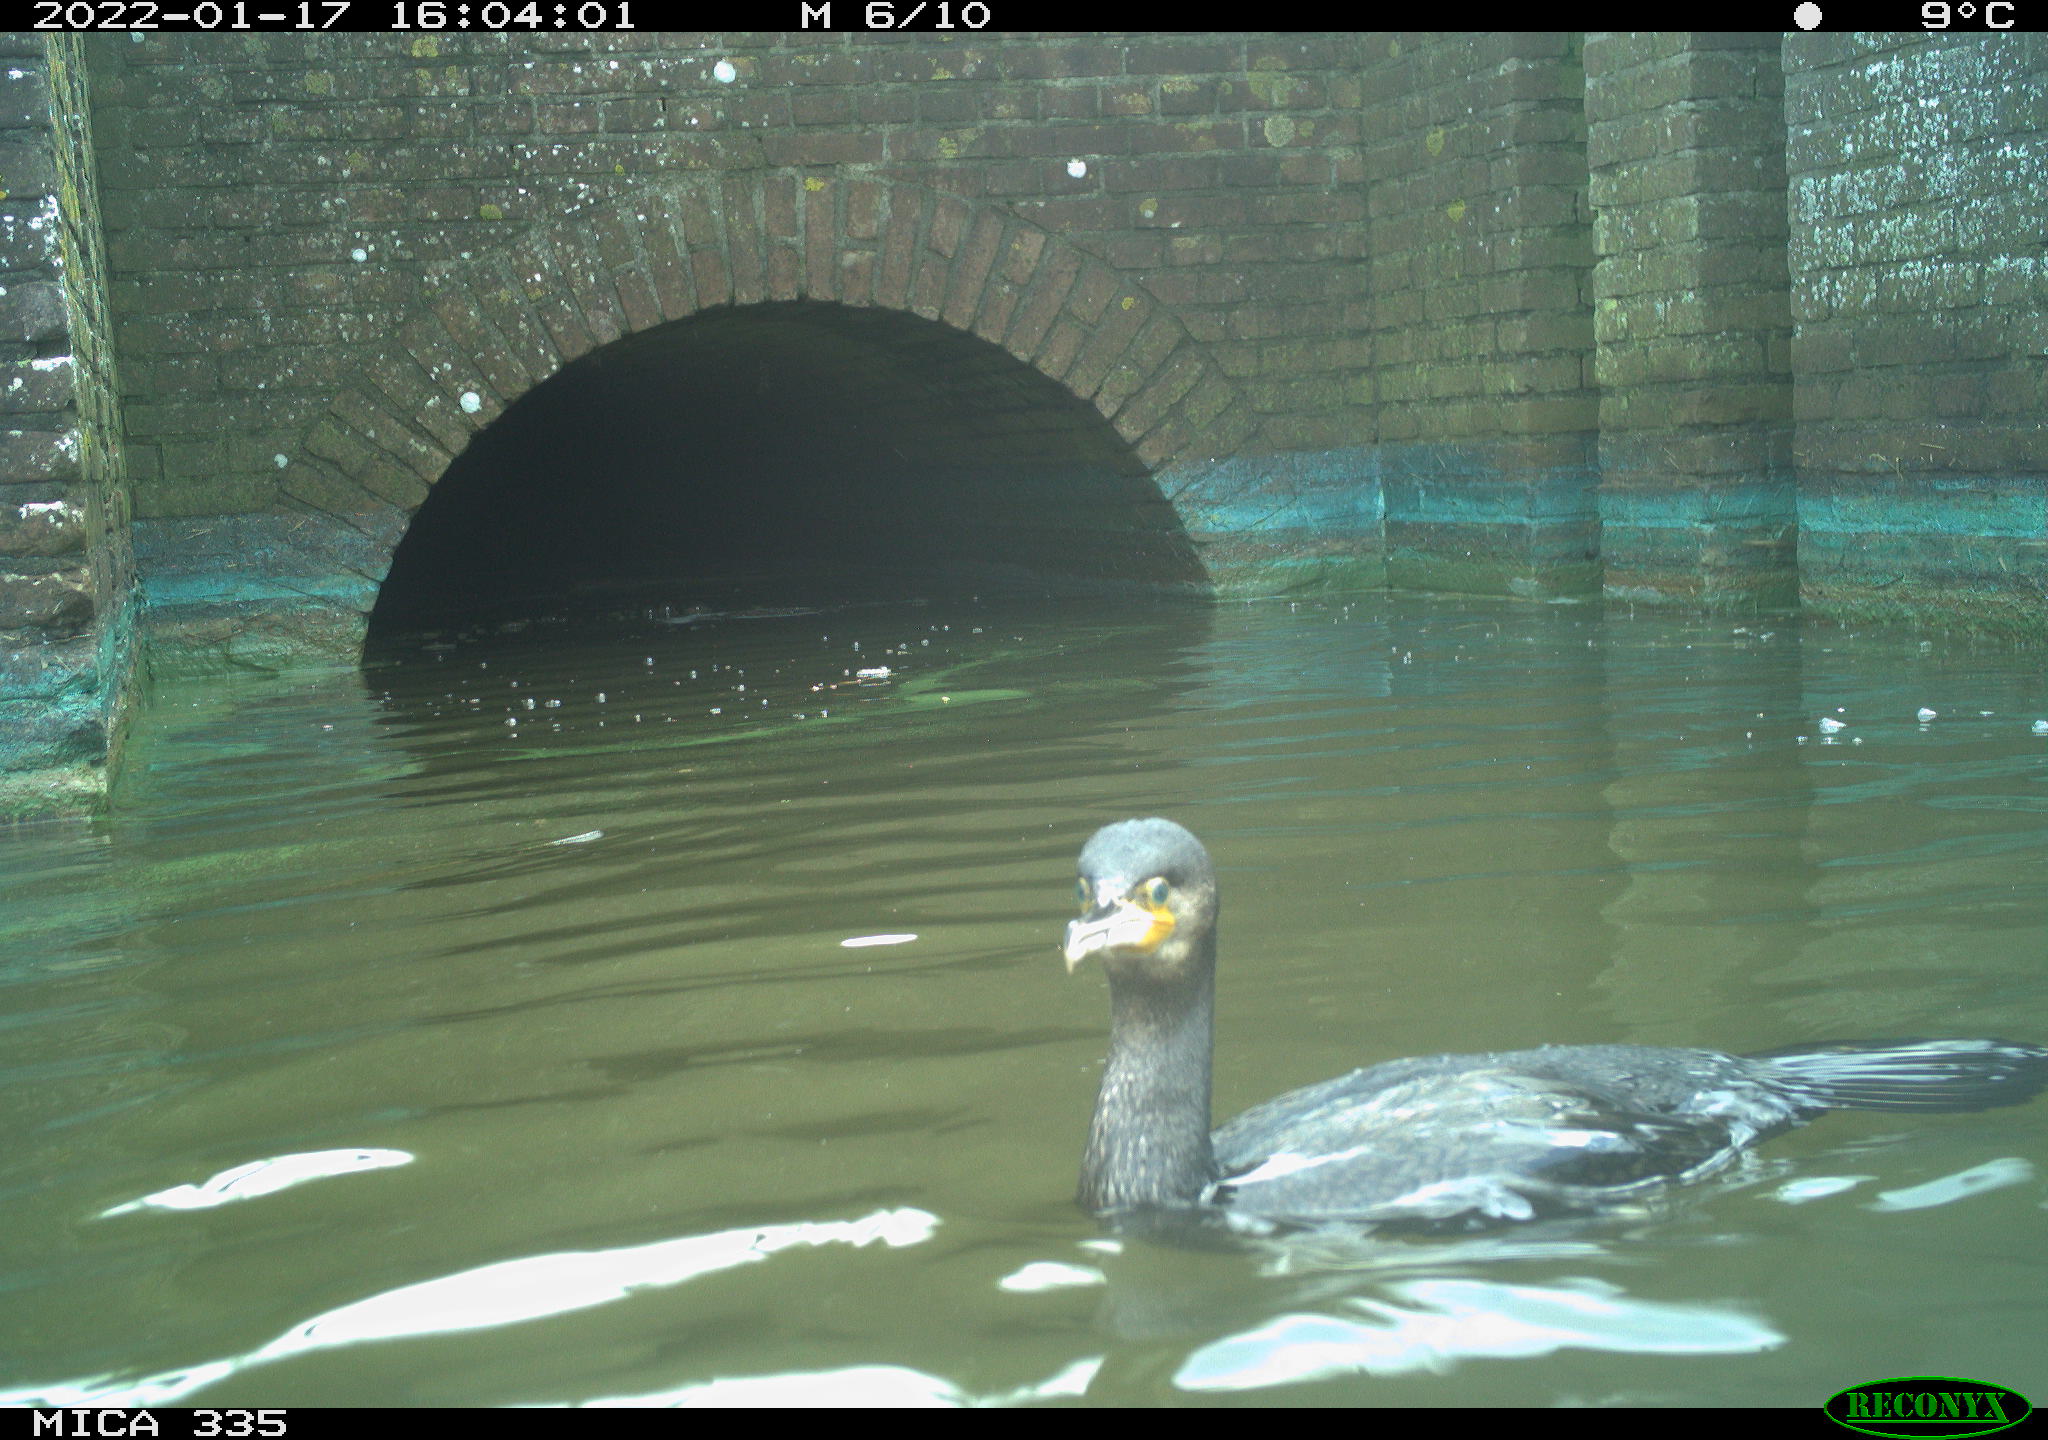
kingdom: Animalia
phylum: Chordata
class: Aves
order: Suliformes
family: Phalacrocoracidae
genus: Phalacrocorax
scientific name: Phalacrocorax carbo
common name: Great cormorant
